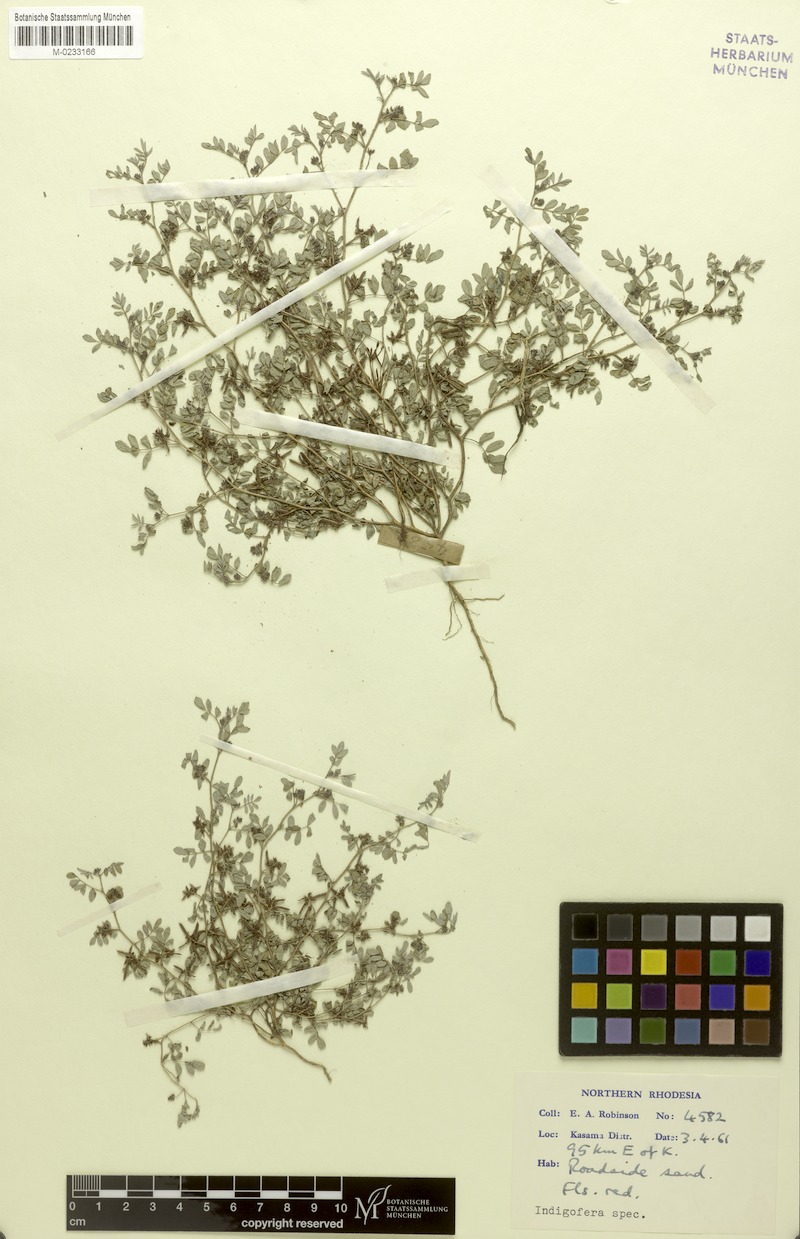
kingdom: Plantae
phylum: Tracheophyta
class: Magnoliopsida
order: Fabales
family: Fabaceae
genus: Indigofera
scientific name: Indigofera breviviscosa
